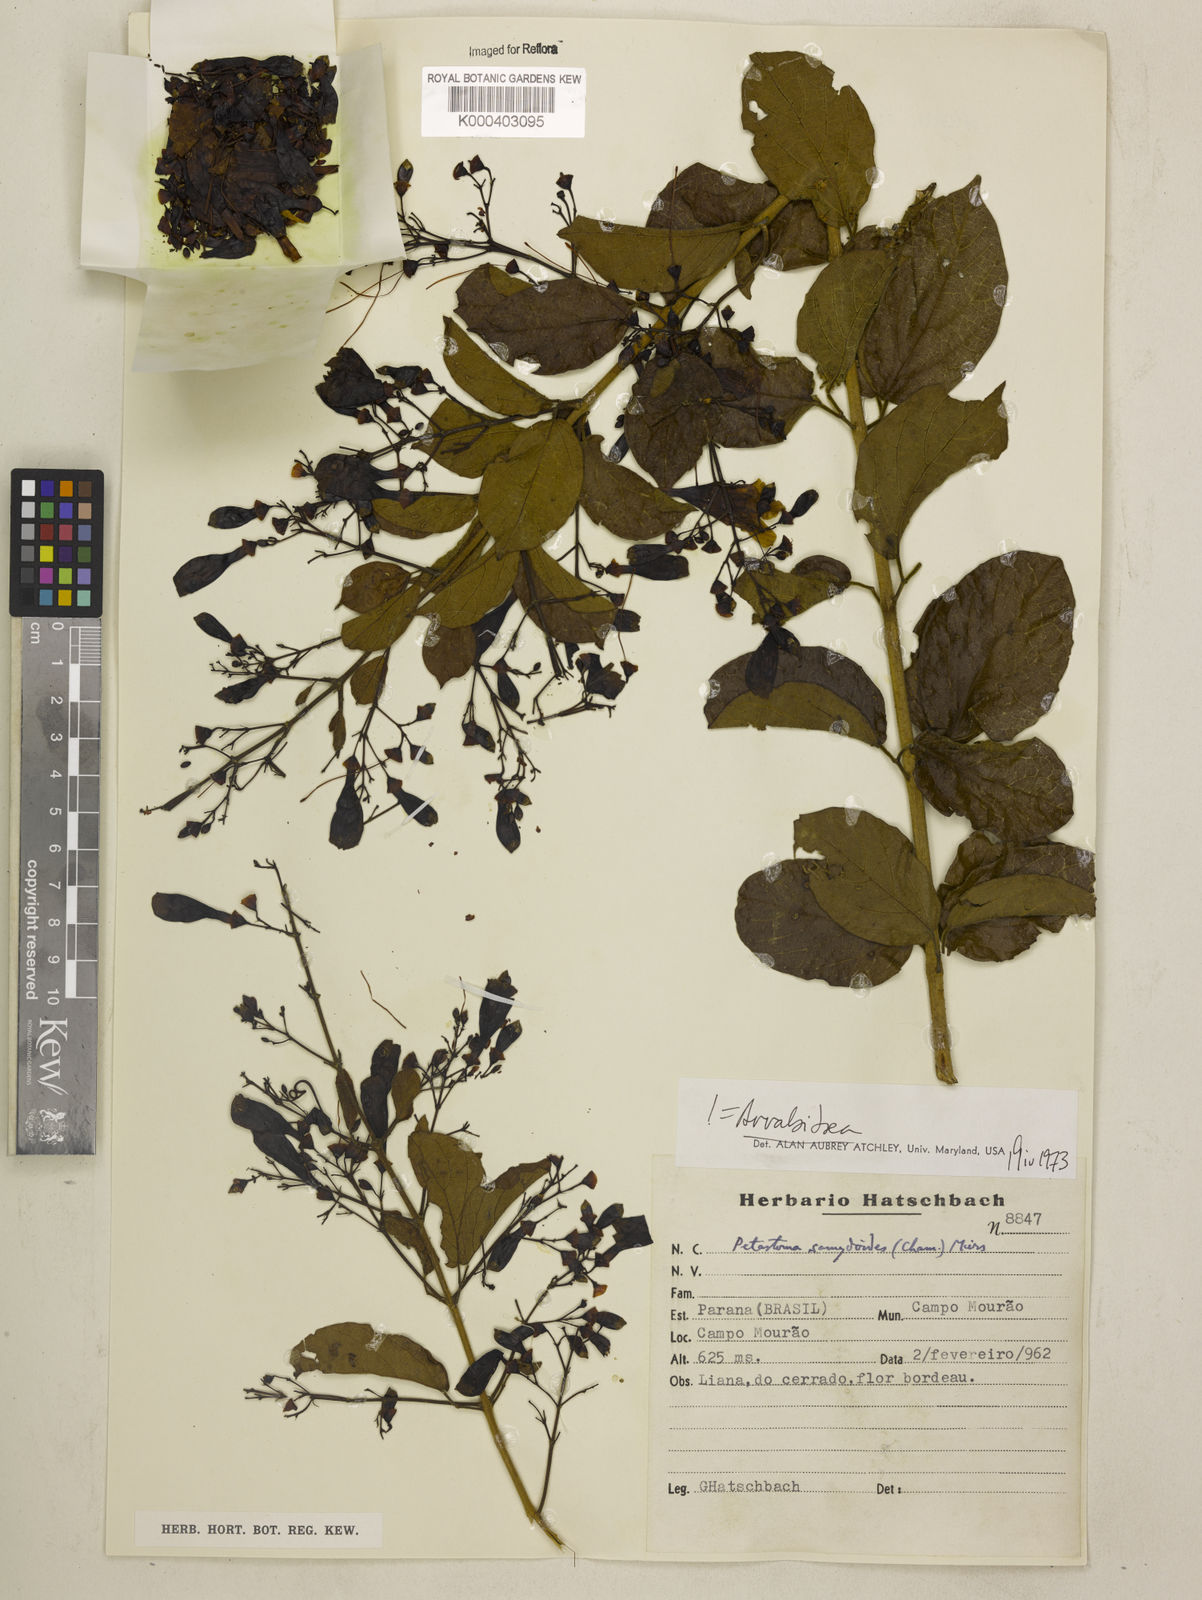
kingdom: Plantae
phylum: Tracheophyta
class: Magnoliopsida
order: Lamiales
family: Bignoniaceae
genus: Fridericia
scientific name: Fridericia samydoides
